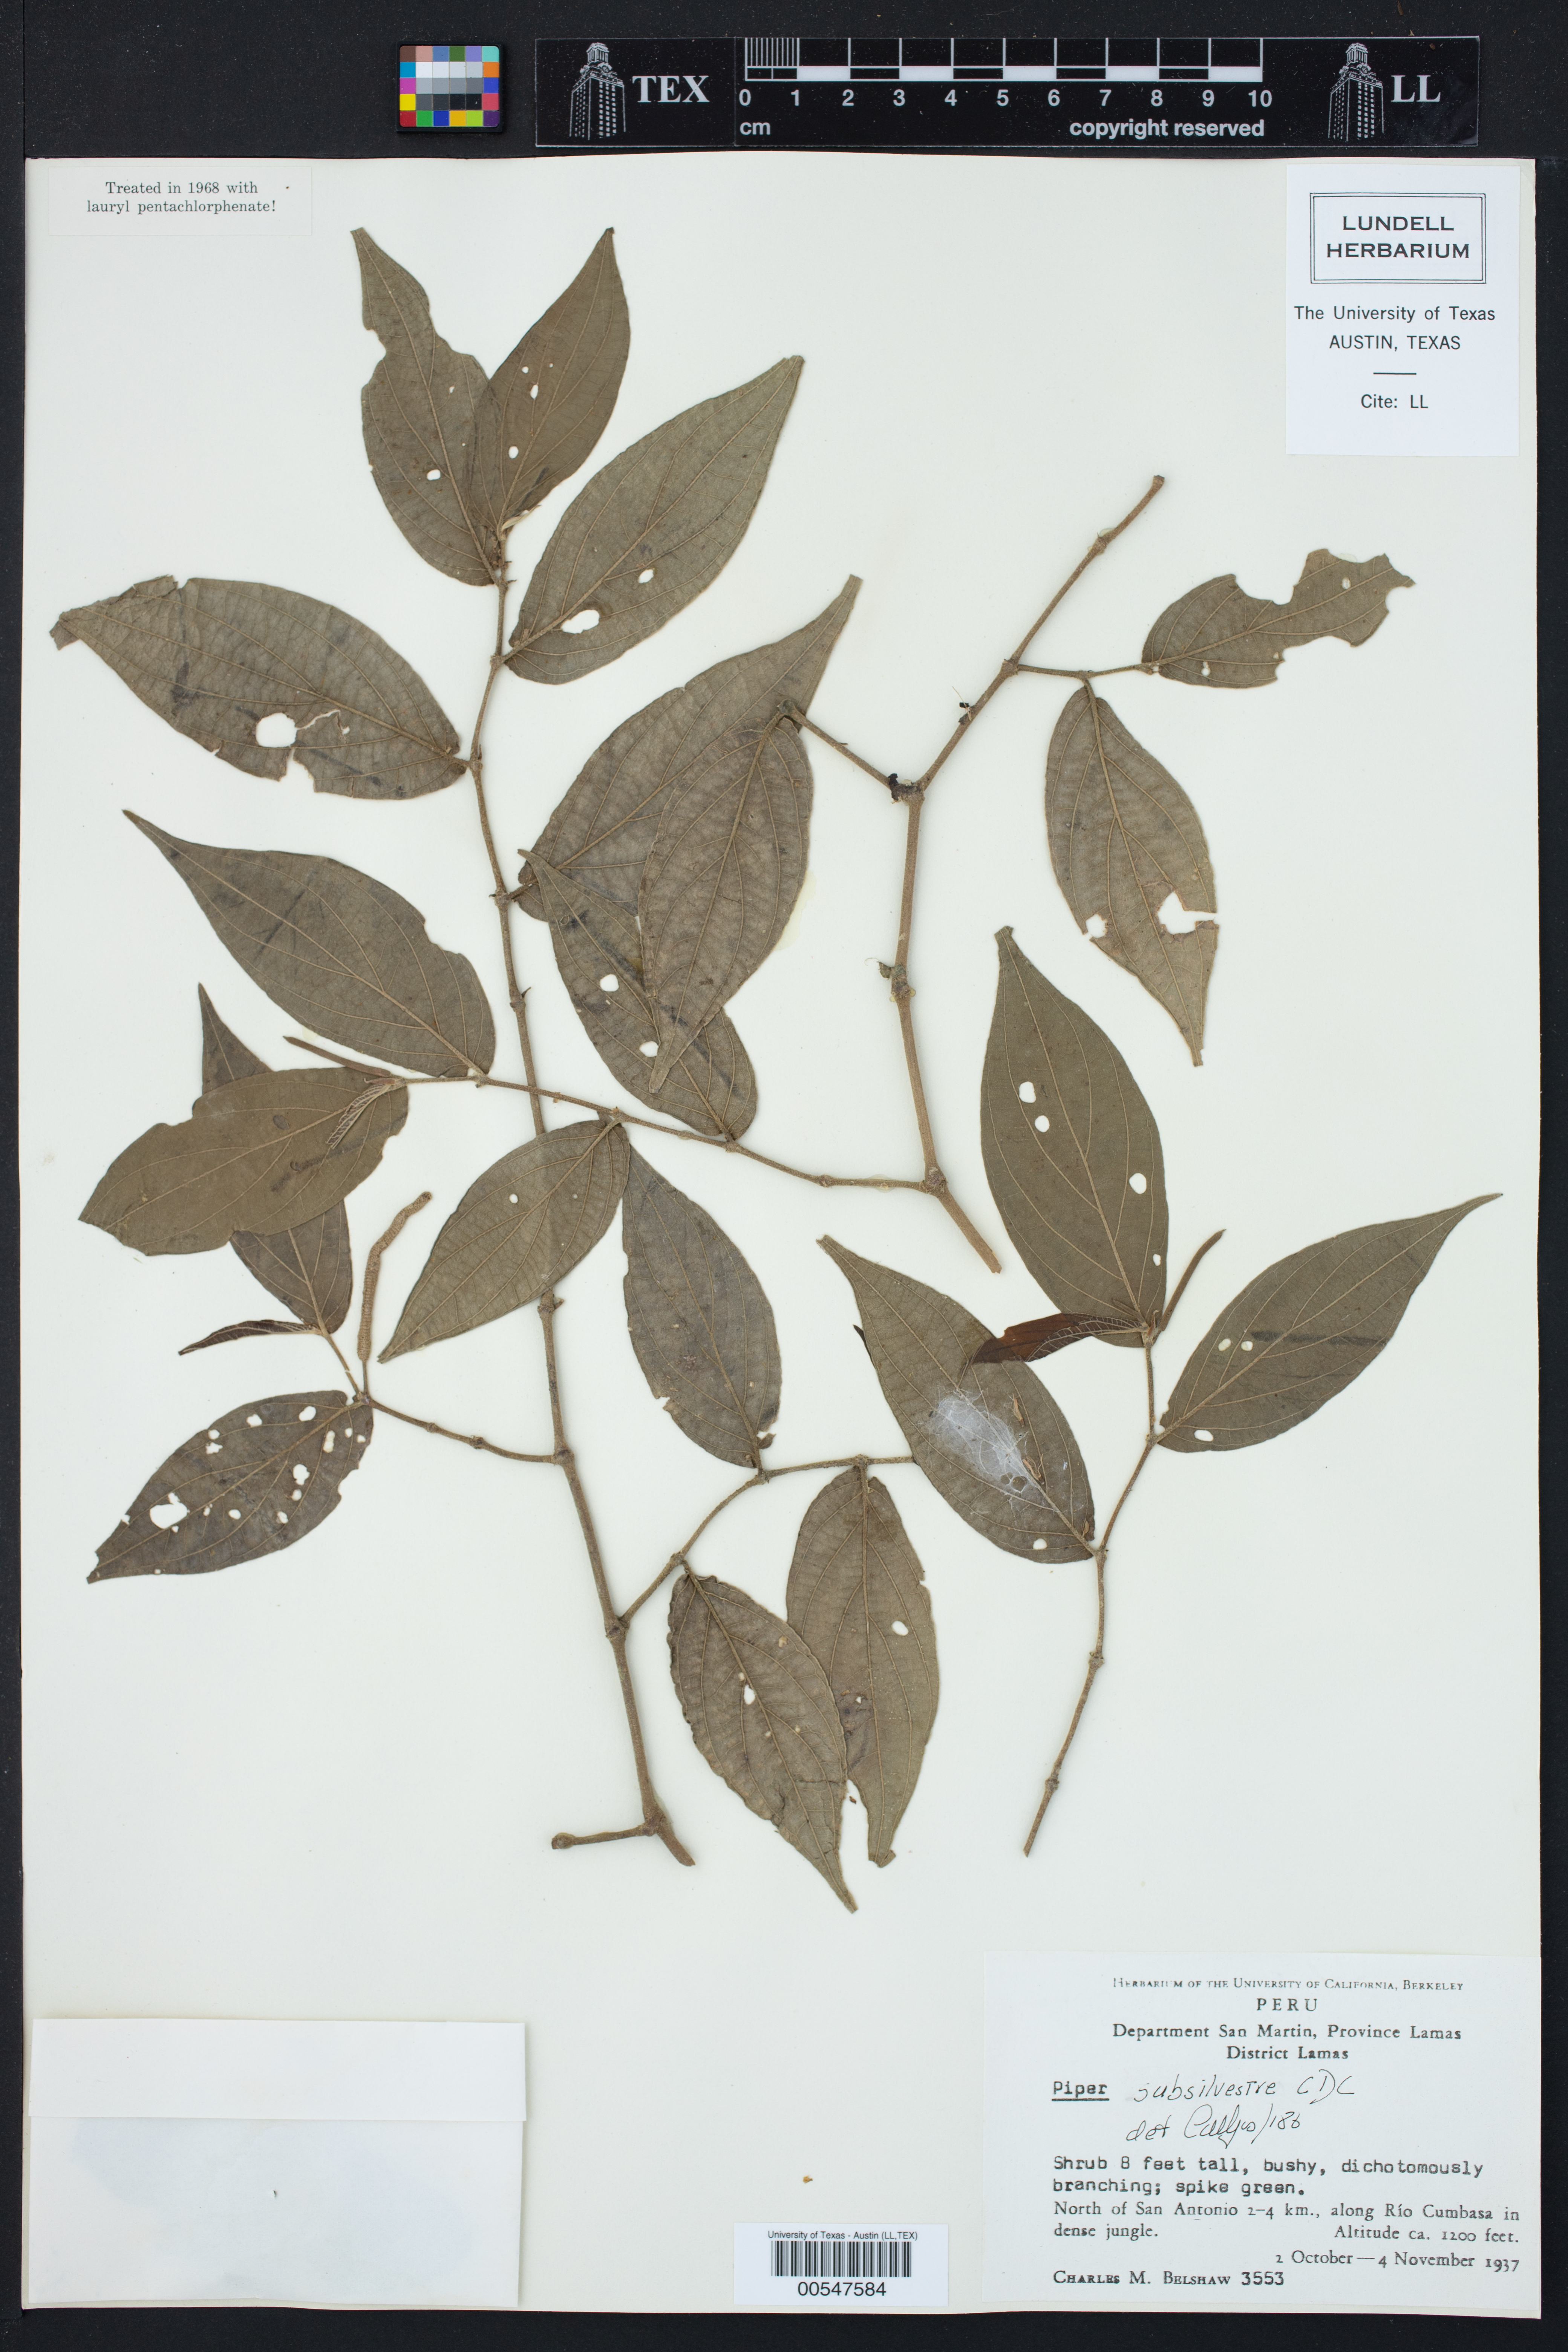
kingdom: Plantae
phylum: Tracheophyta
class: Magnoliopsida
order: Piperales
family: Piperaceae
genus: Piper
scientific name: Piper subsilvulanum
